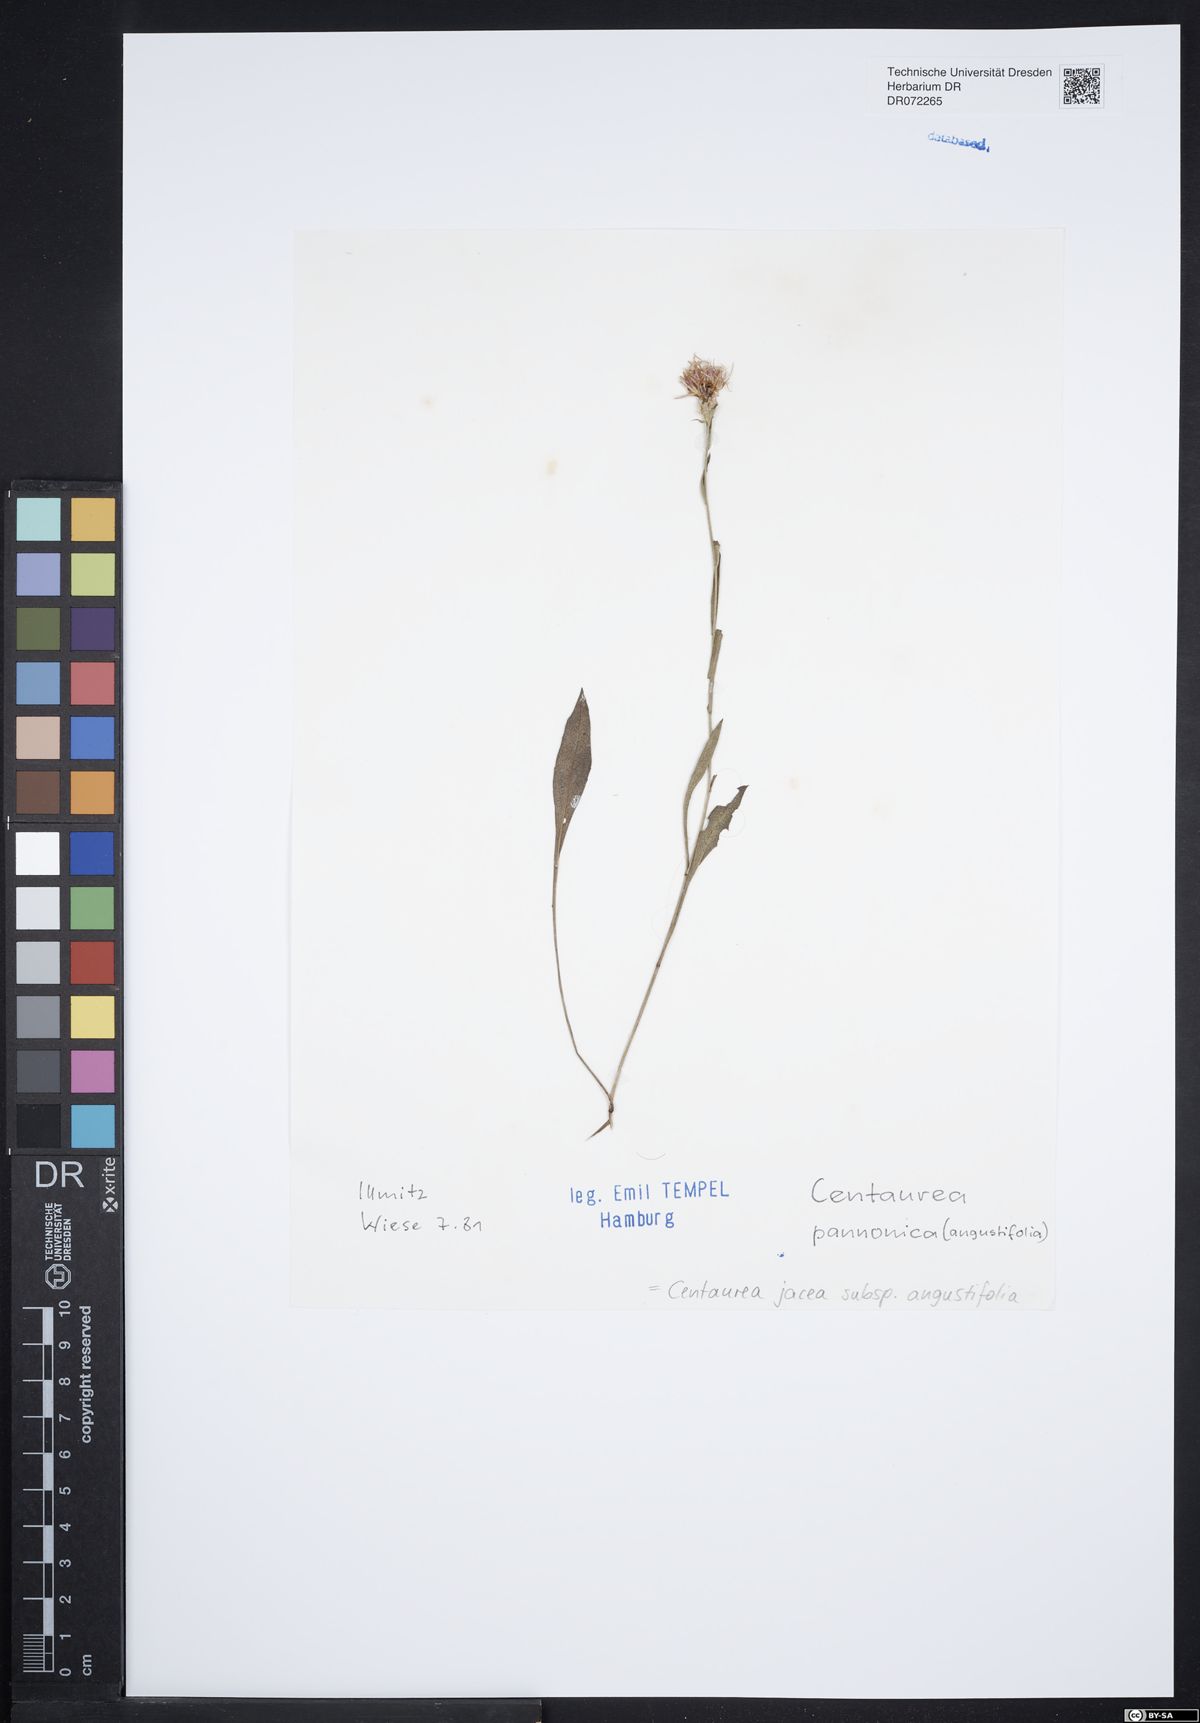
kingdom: Plantae
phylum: Tracheophyta
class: Magnoliopsida
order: Asterales
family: Asteraceae
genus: Centaurea
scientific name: Centaurea pannonica
